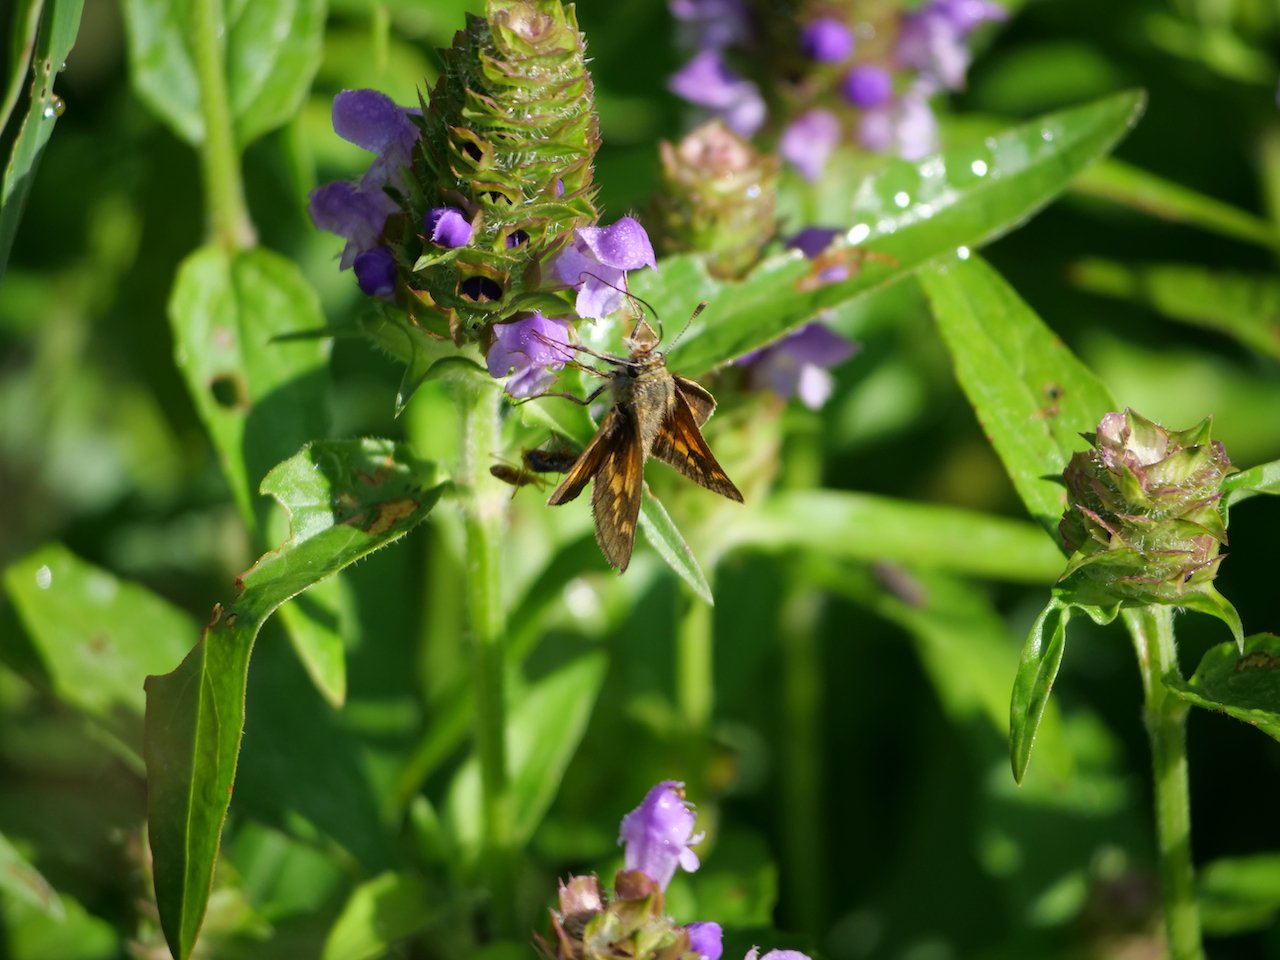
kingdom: Animalia
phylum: Arthropoda
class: Insecta
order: Lepidoptera
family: Hesperiidae
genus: Lon
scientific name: Lon hobomok
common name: Hobomok Skipper
